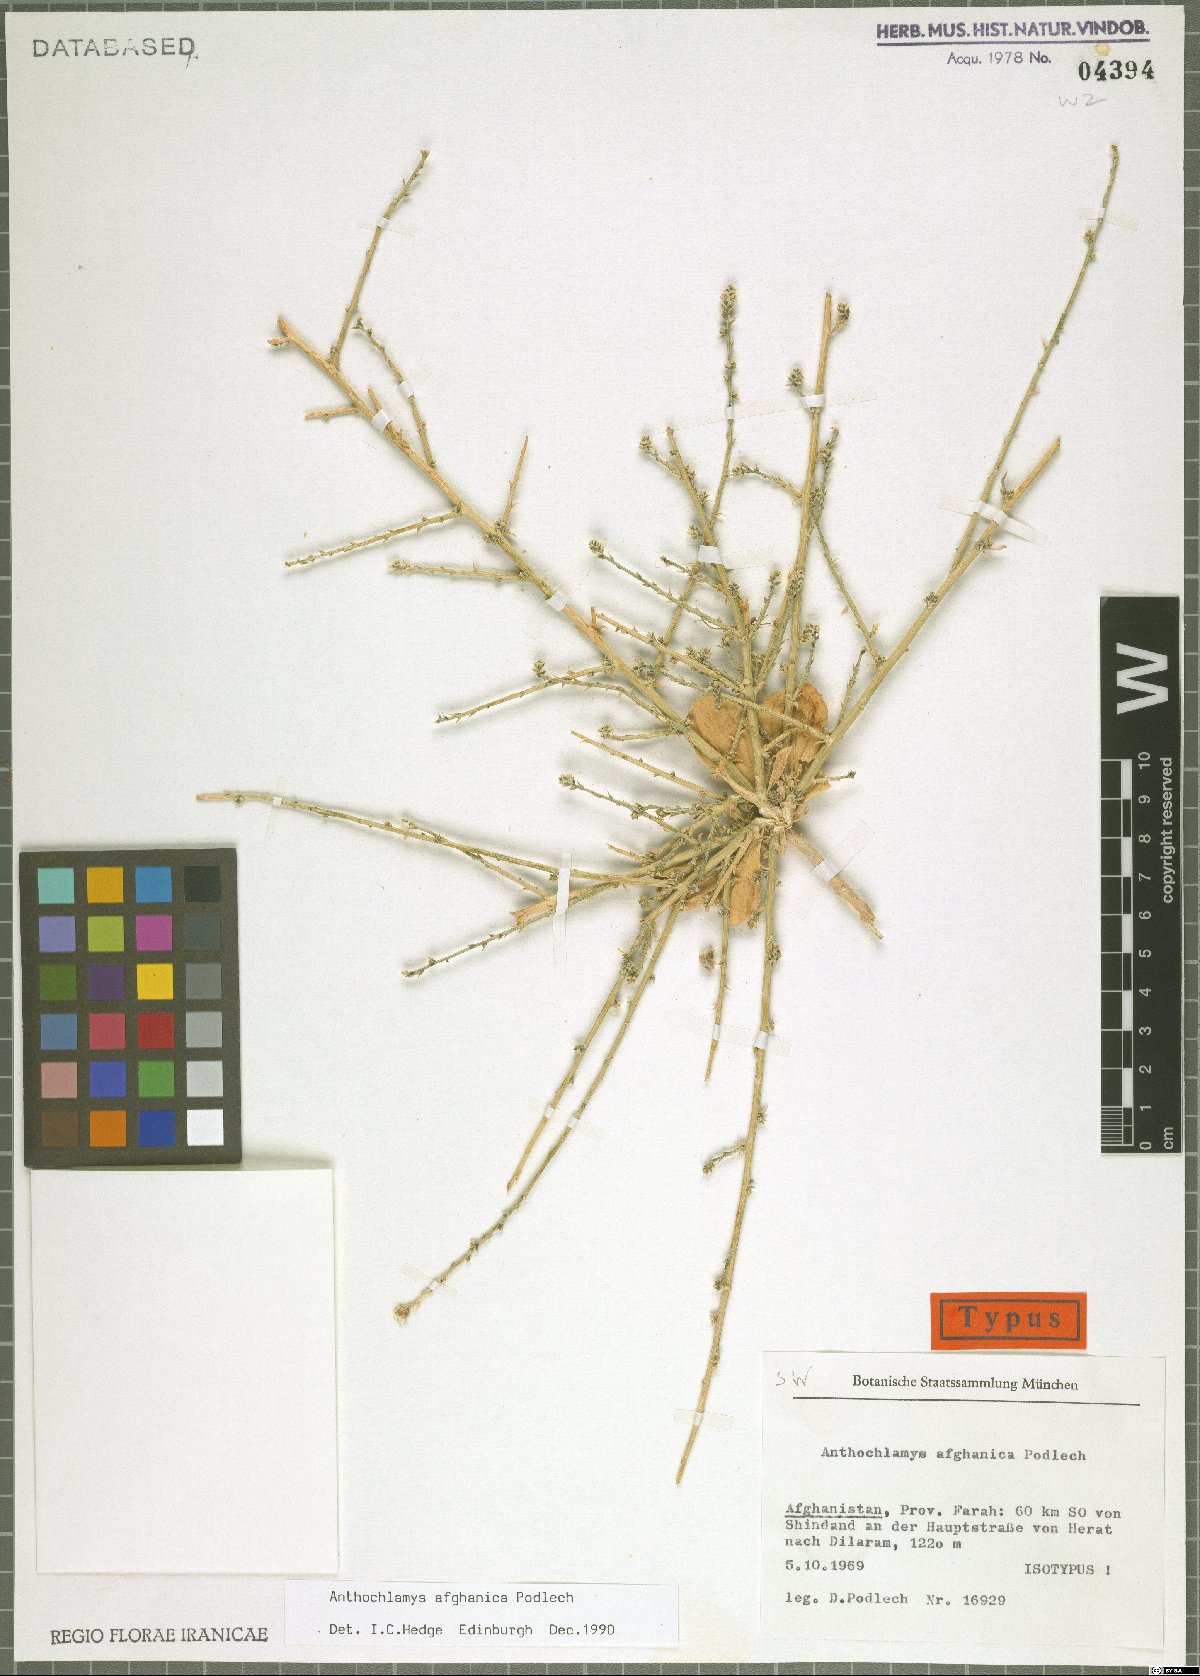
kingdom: Plantae
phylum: Tracheophyta
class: Magnoliopsida
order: Caryophyllales
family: Amaranthaceae
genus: Anthochlamys
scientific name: Anthochlamys afghanica
